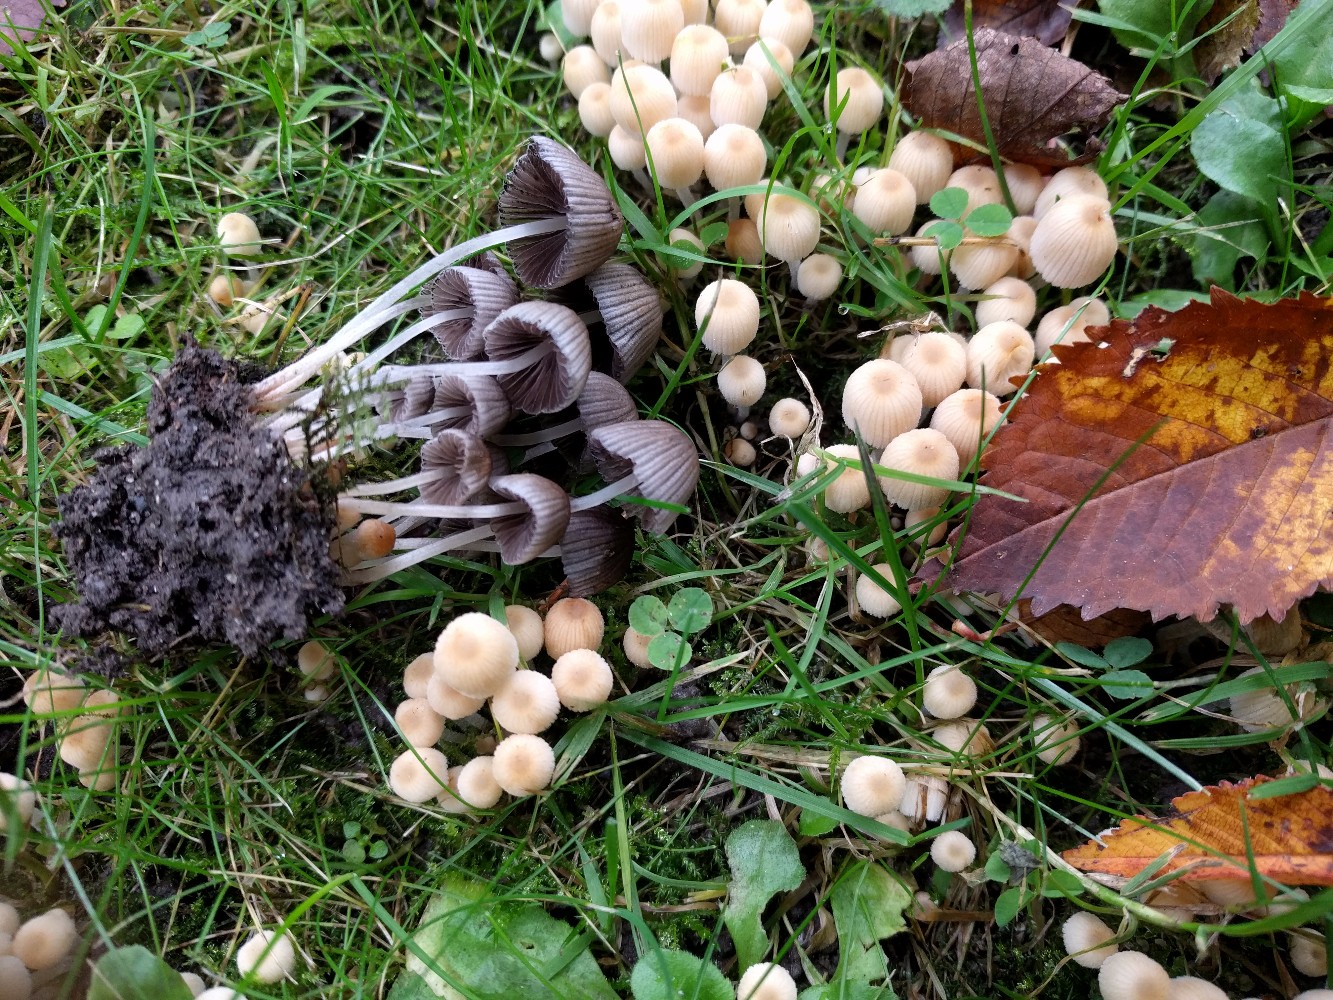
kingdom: Fungi
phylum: Basidiomycota
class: Agaricomycetes
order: Agaricales
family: Psathyrellaceae
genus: Coprinellus
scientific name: Coprinellus disseminatus
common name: bredsået blækhat
